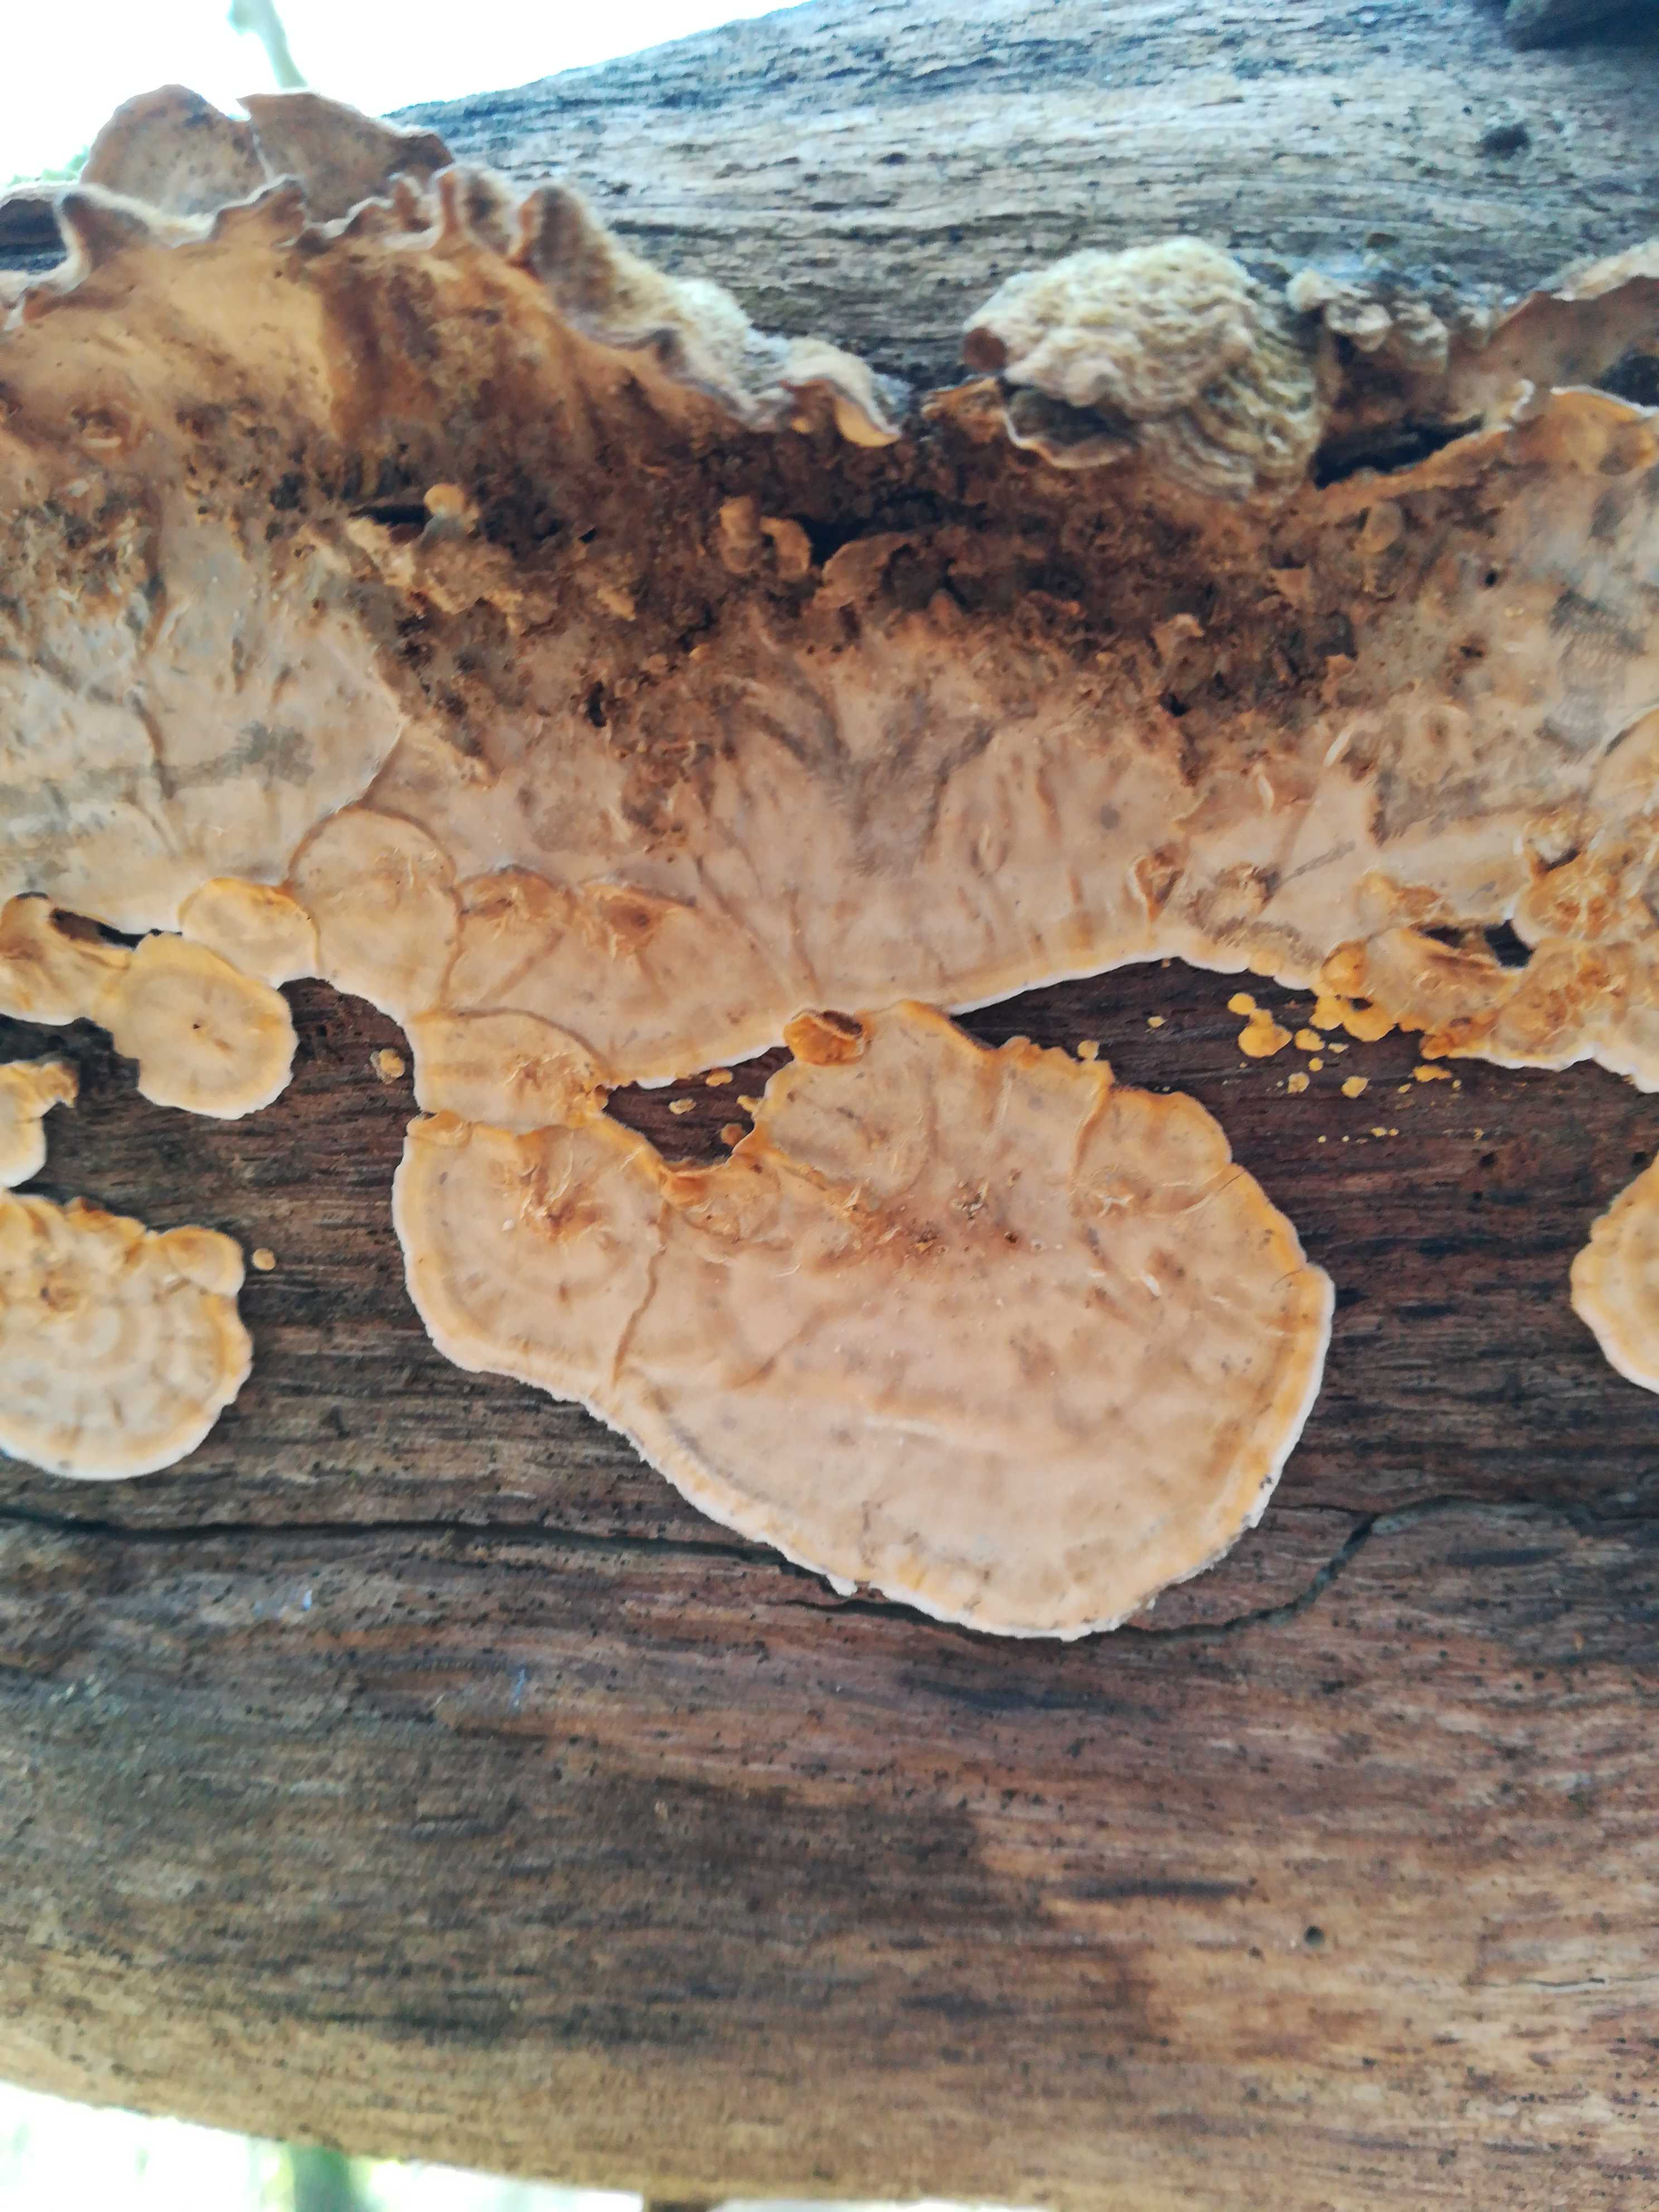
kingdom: Fungi
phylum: Basidiomycota
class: Agaricomycetes
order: Russulales
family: Stereaceae
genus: Stereum
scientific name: Stereum hirsutum
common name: håret lædersvamp
